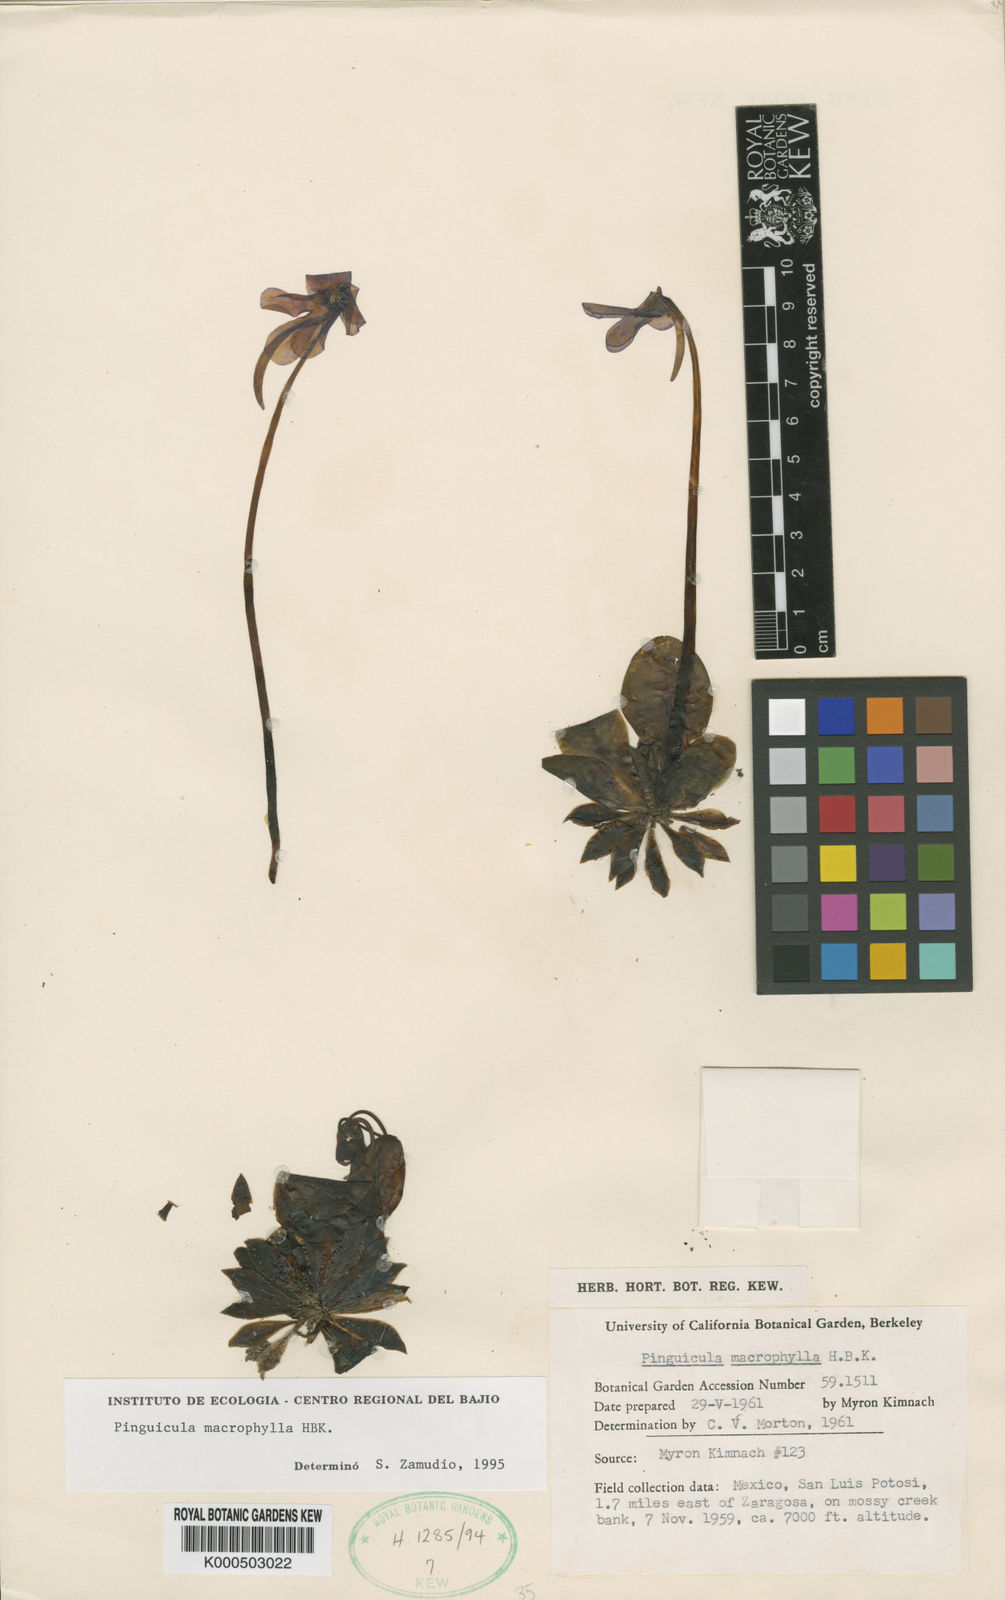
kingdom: Plantae
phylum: Tracheophyta
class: Magnoliopsida
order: Lamiales
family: Lentibulariaceae
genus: Pinguicula
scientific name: Pinguicula macrophylla
